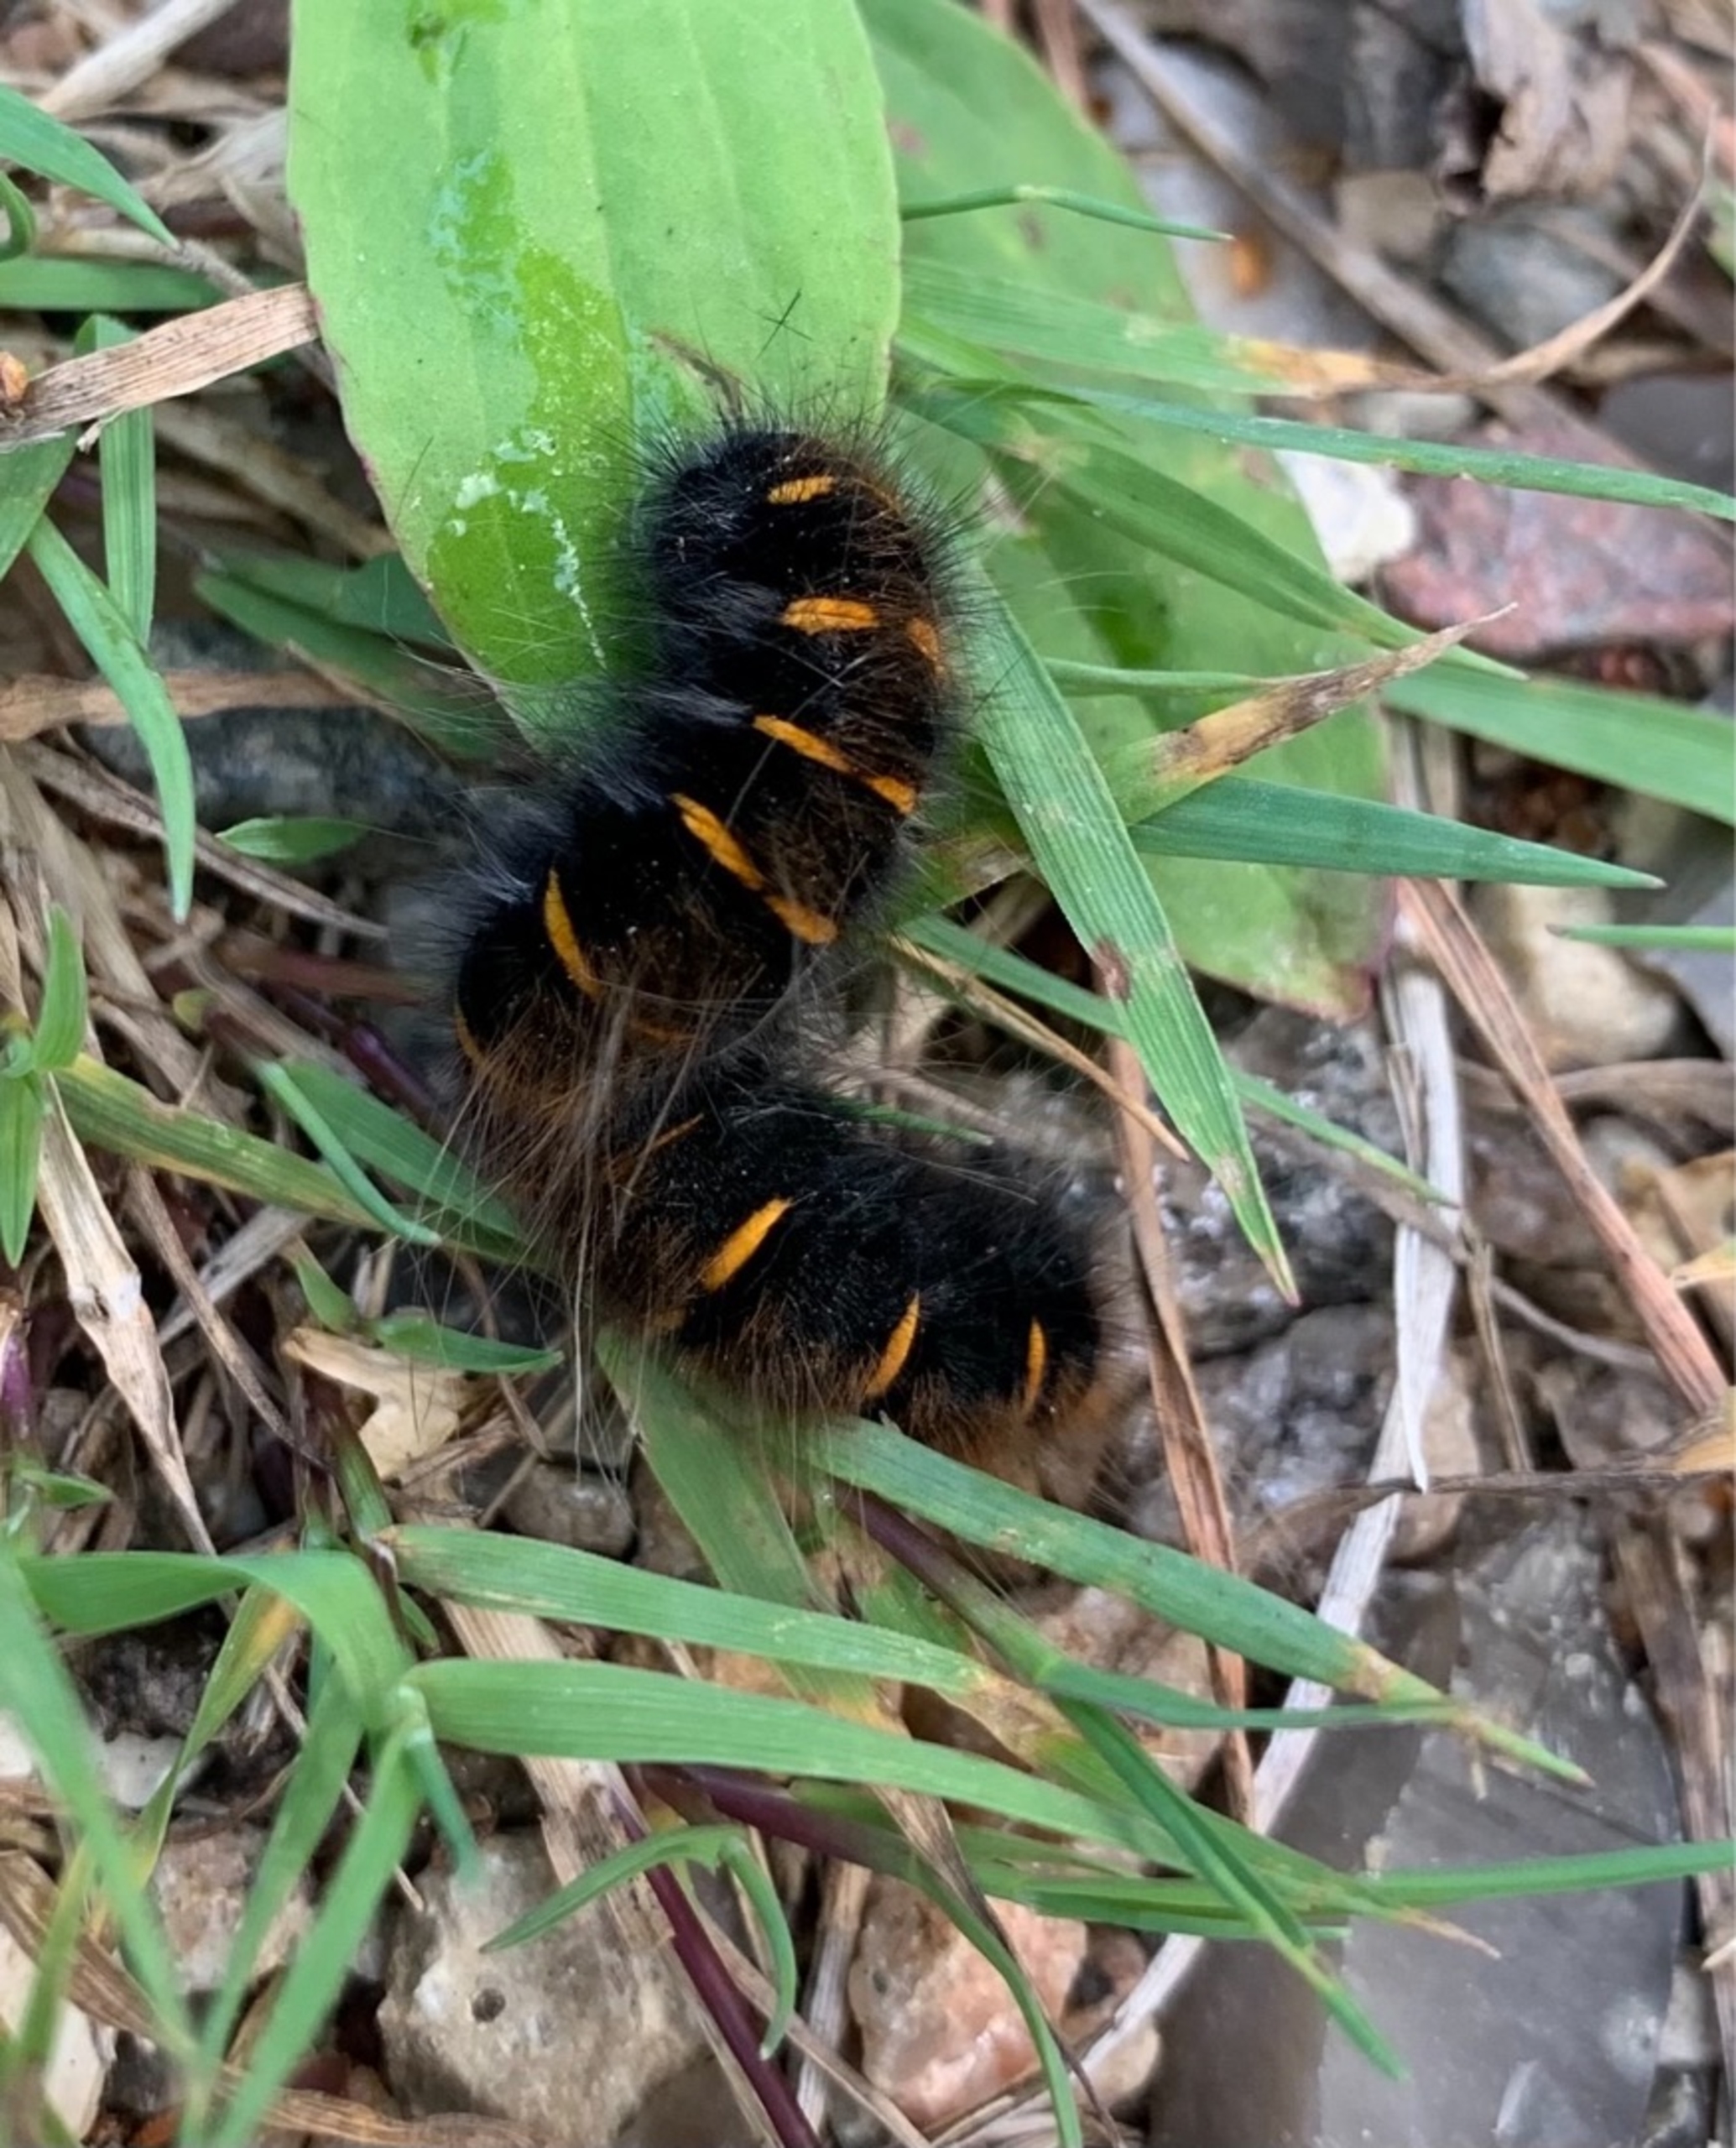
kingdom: Animalia
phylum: Arthropoda
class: Insecta
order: Lepidoptera
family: Lasiocampidae
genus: Macrothylacia
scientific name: Macrothylacia rubi
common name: Brombærspinder
